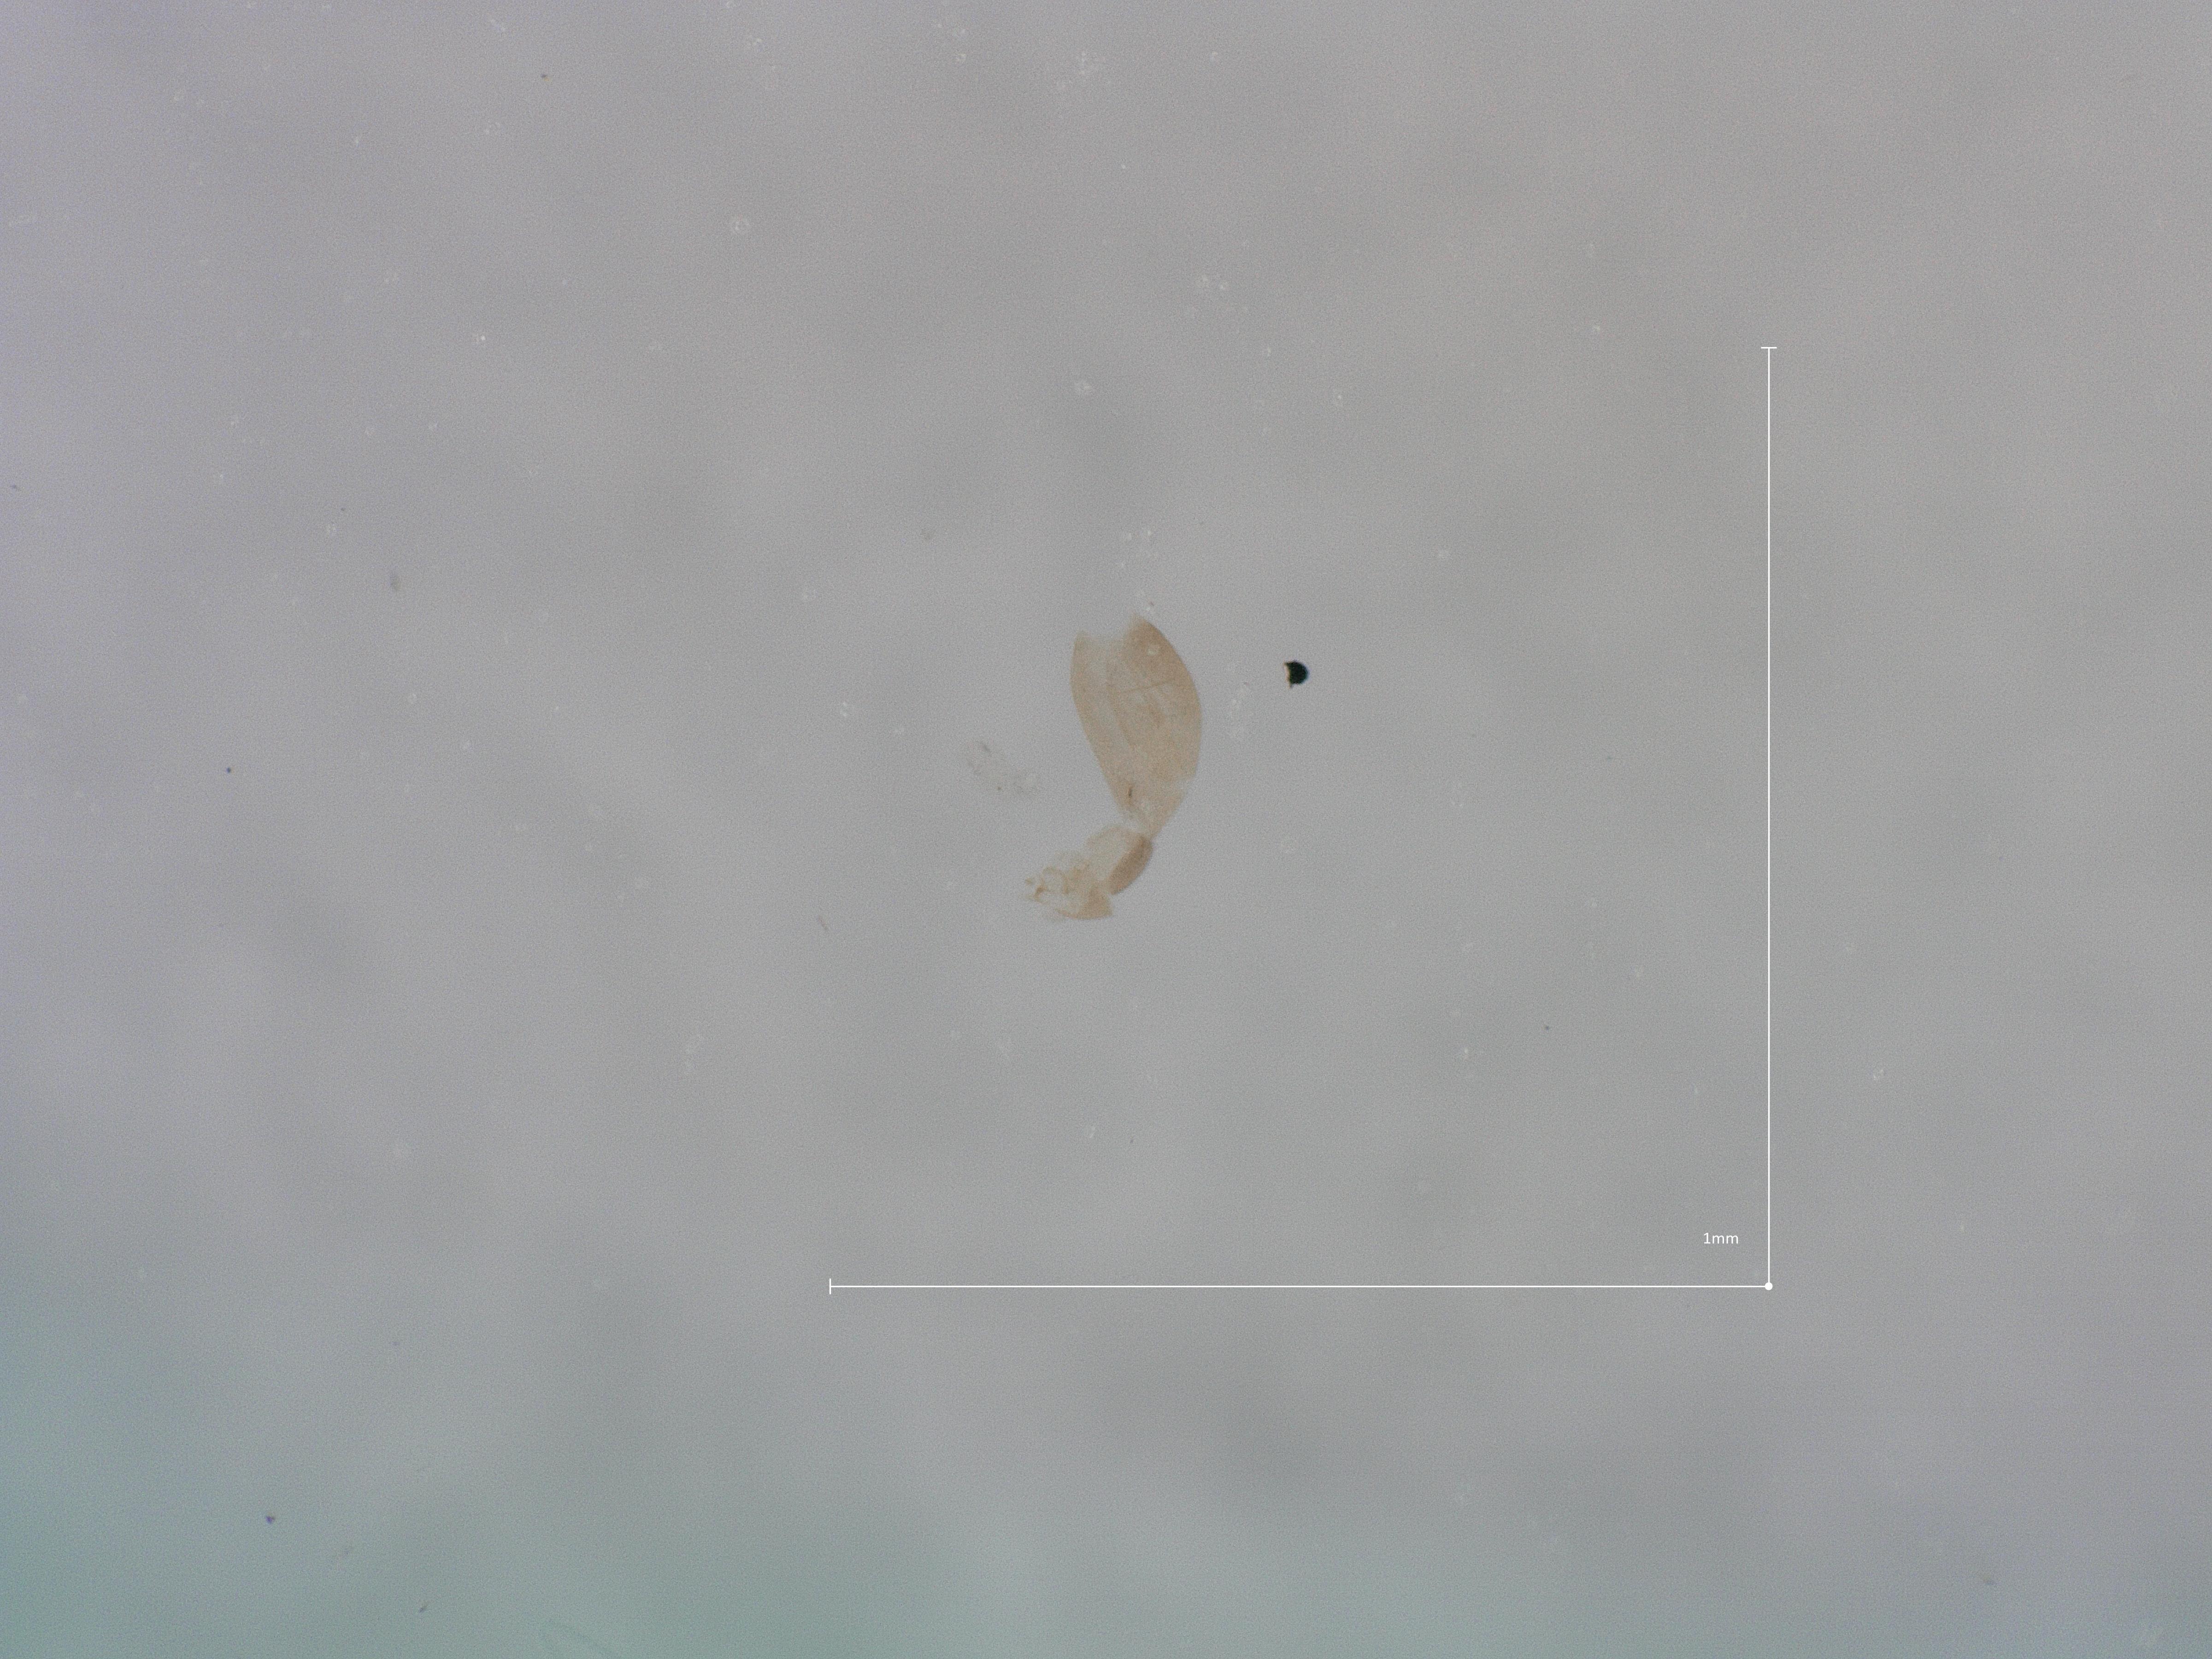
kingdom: Animalia
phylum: Arthropoda
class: Insecta
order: Diptera
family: Phoridae
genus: Megaselia
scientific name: Megaselia tarsella
